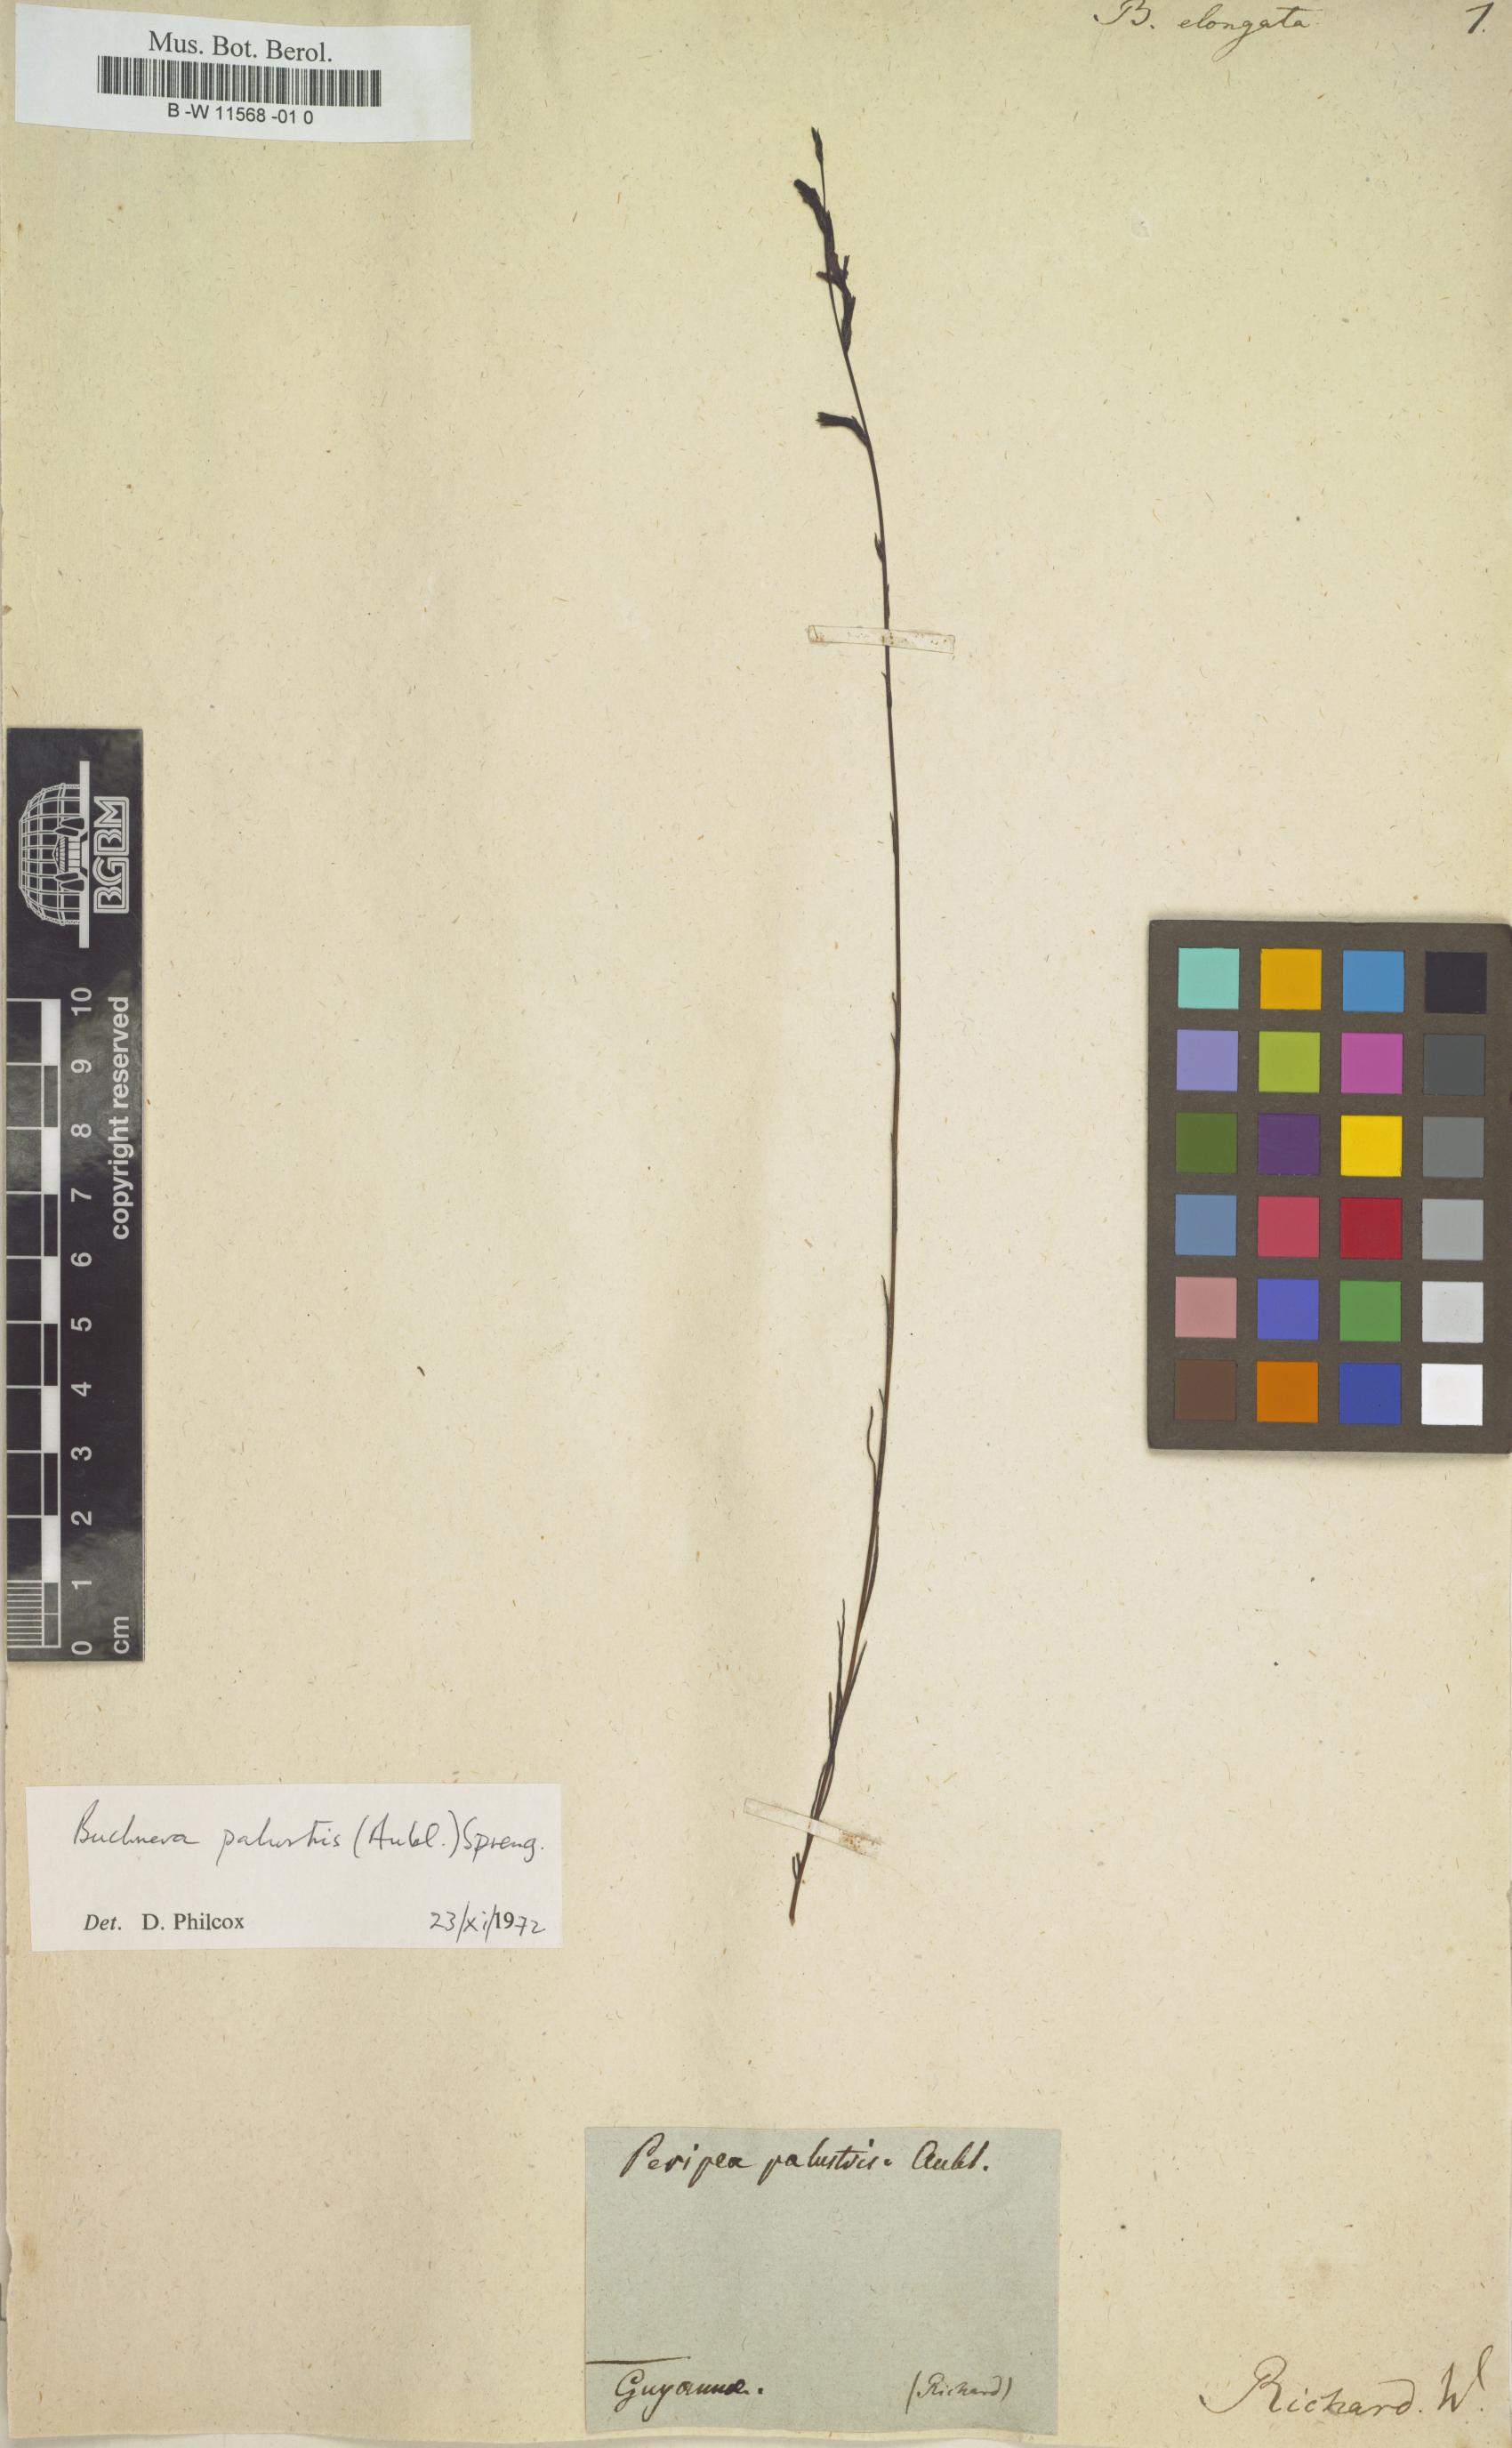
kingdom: Plantae
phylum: Tracheophyta
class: Magnoliopsida
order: Lamiales
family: Orobanchaceae
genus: Buchnera
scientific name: Buchnera
